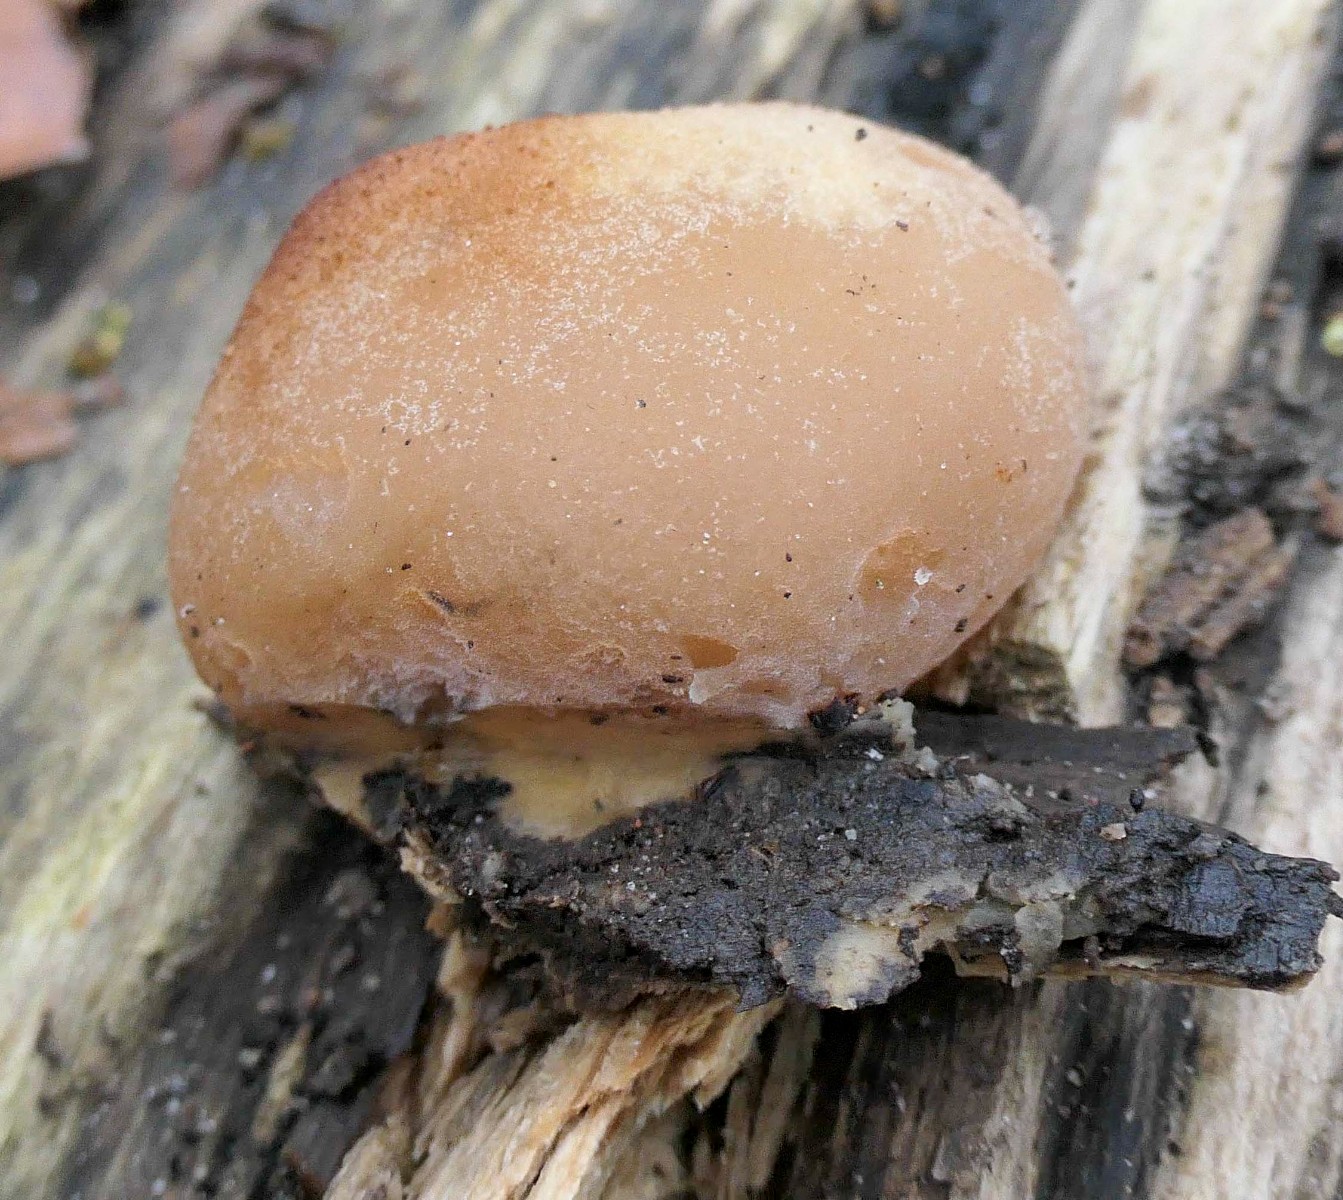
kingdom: Fungi
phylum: Ascomycota
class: Pezizomycetes
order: Pezizales
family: Pezizaceae
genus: Peziza
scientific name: Peziza varia
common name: Ved-bægersvamp
